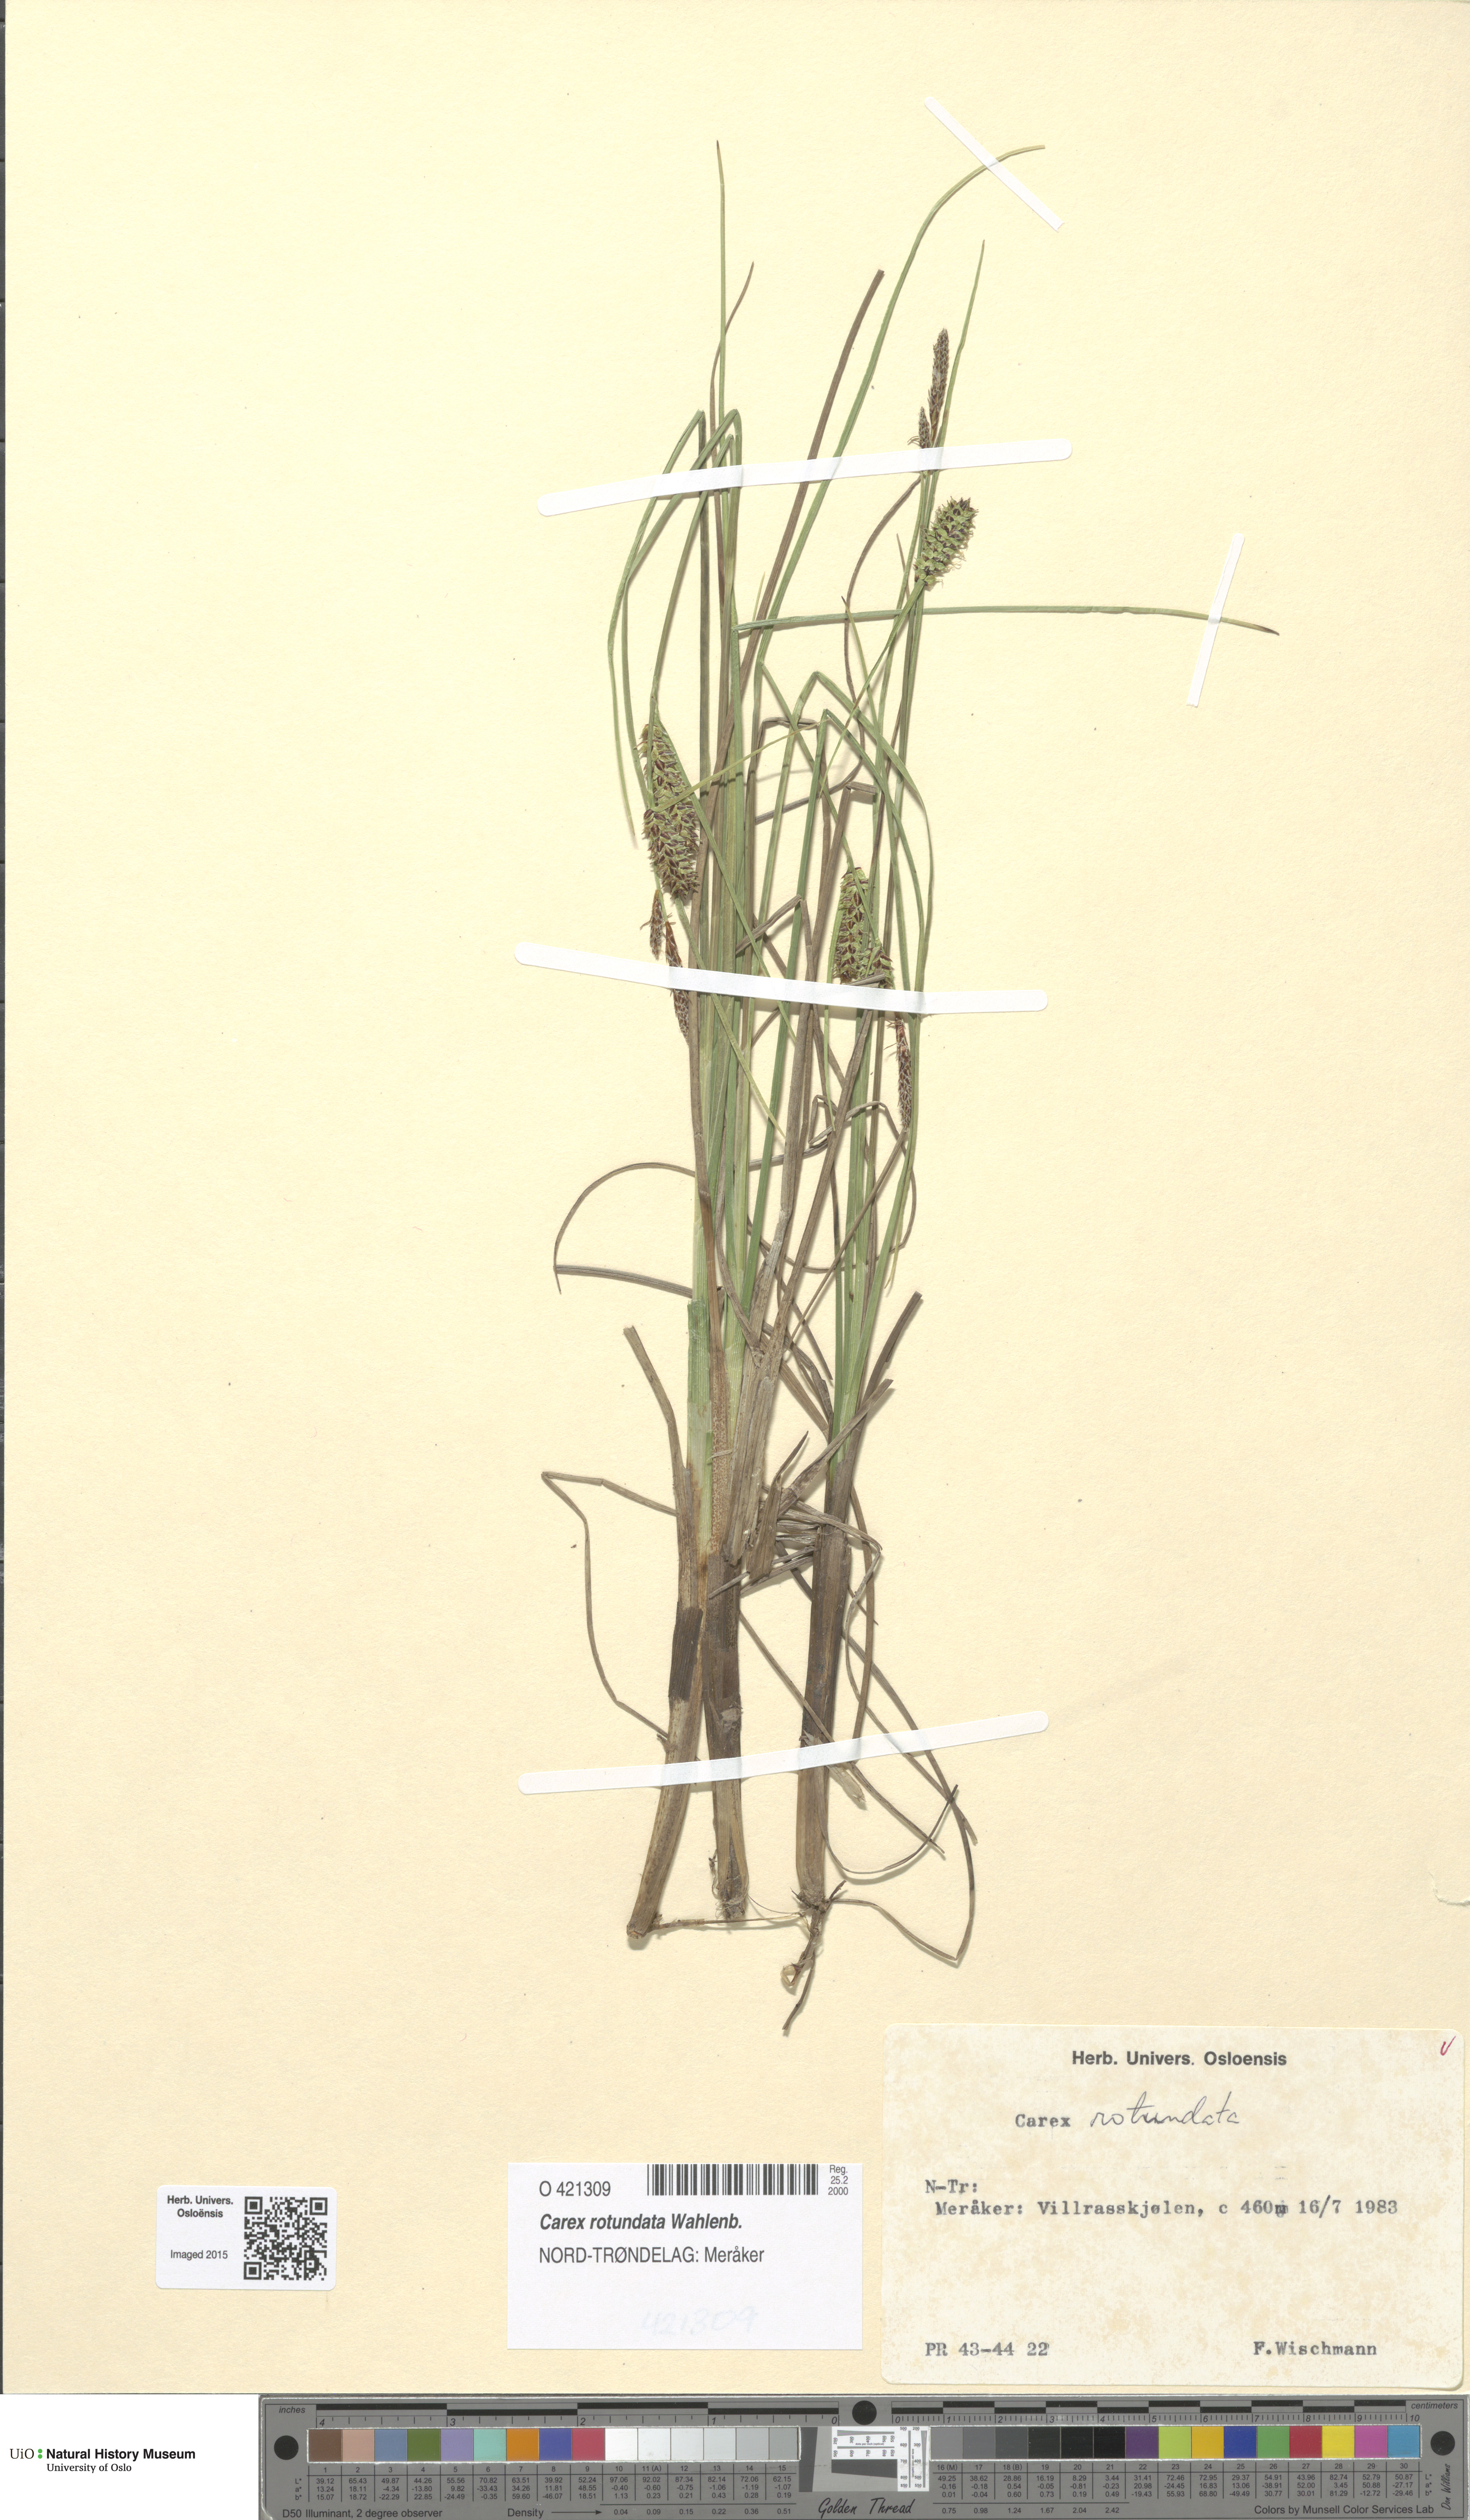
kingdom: Plantae
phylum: Tracheophyta
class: Liliopsida
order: Poales
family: Cyperaceae
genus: Carex
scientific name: Carex rotundata
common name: Round-fruited sedge
